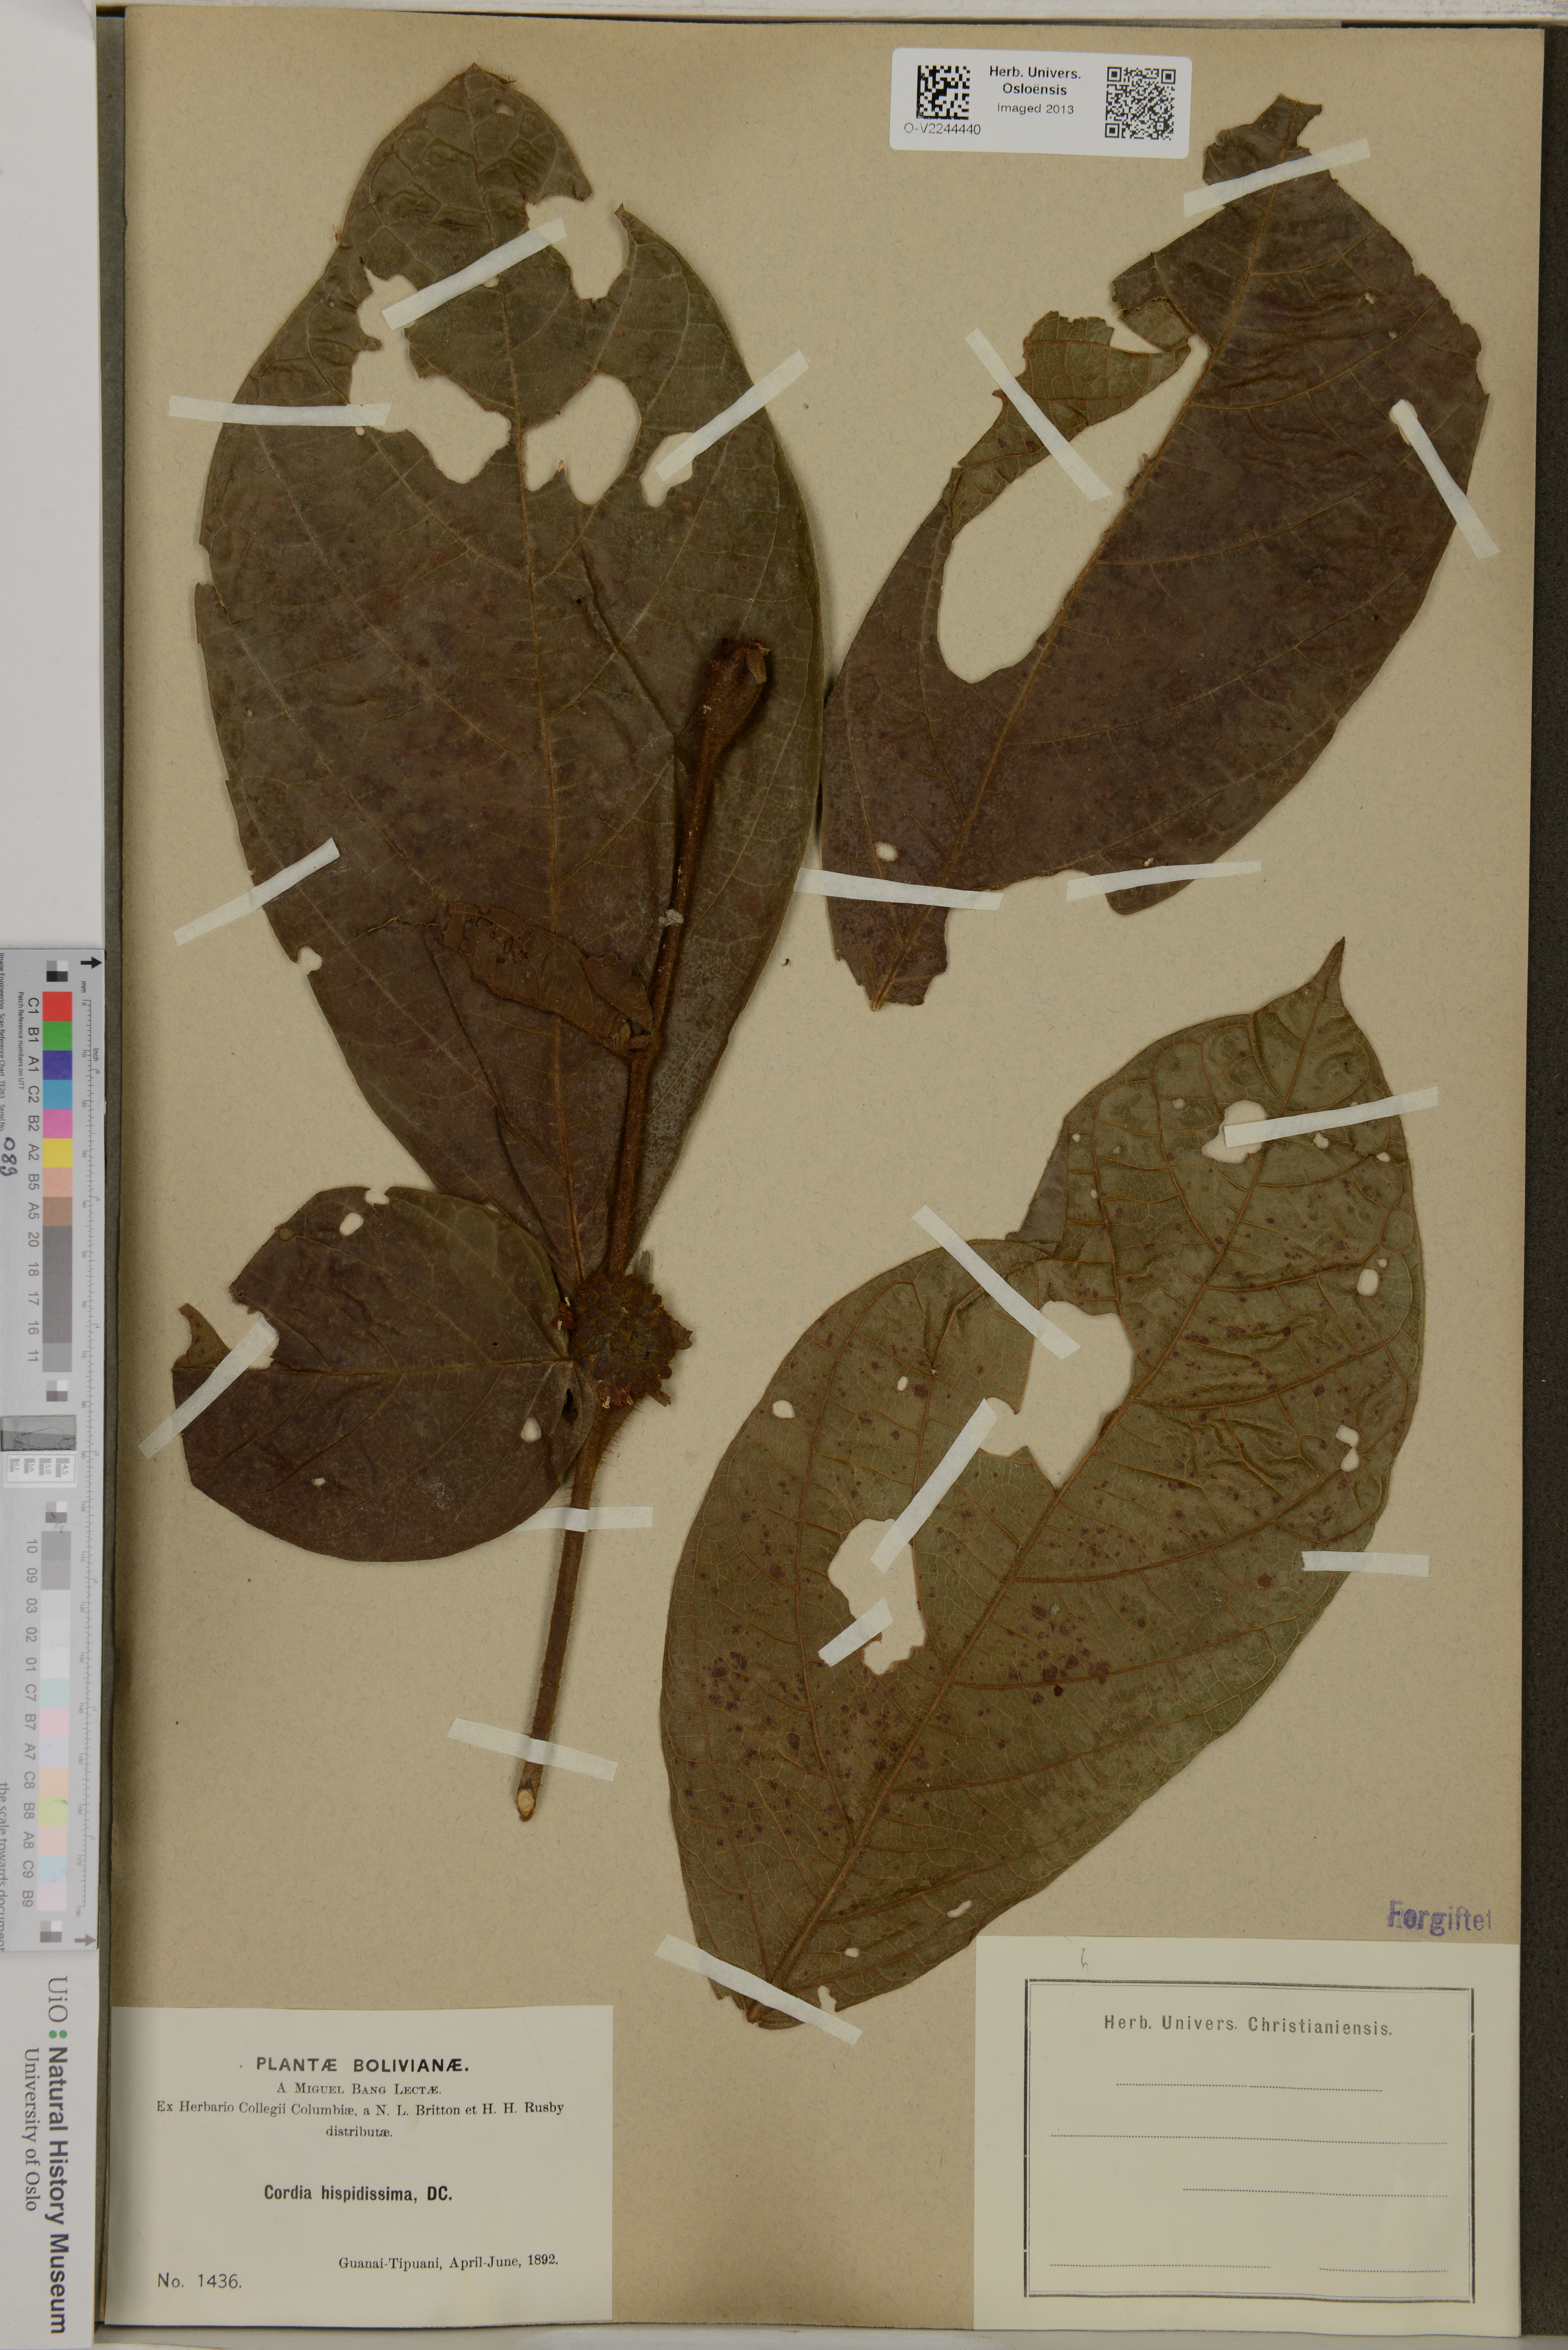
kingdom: Plantae
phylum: Tracheophyta
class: Magnoliopsida
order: Boraginales
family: Cordiaceae
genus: Cordia
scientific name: Cordia nodosa
